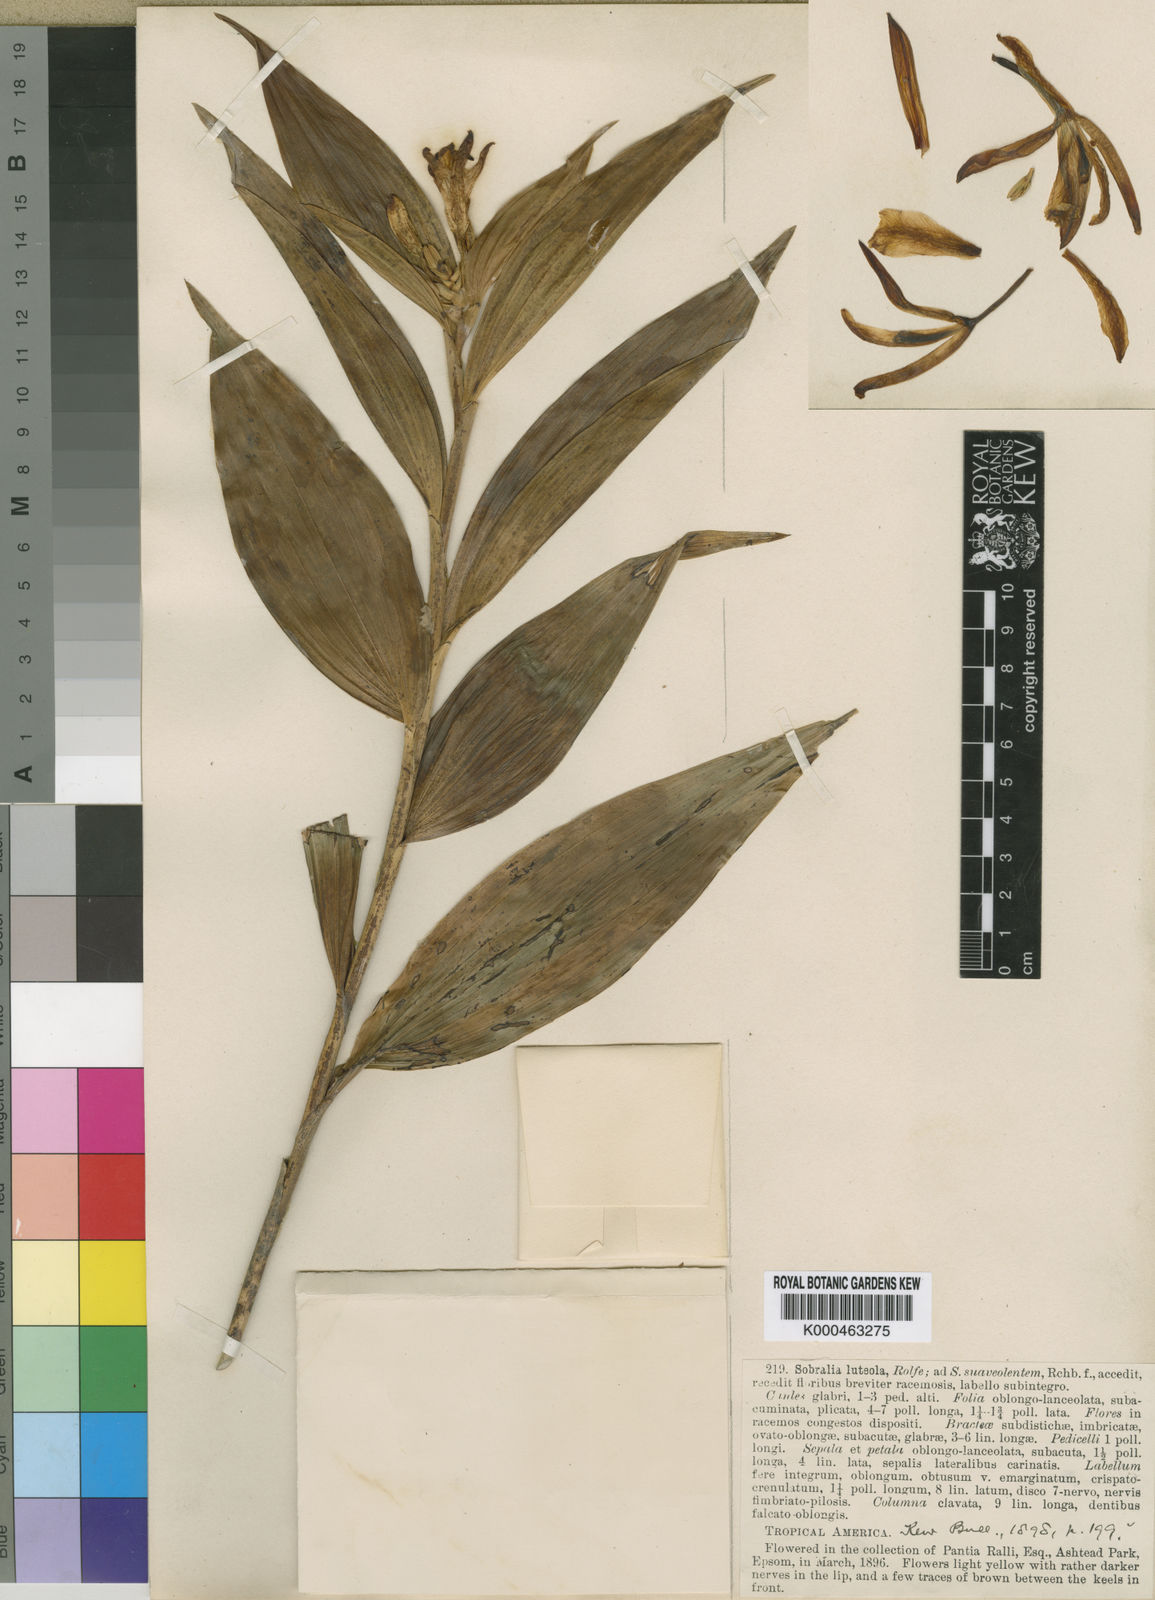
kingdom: Plantae
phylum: Tracheophyta
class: Liliopsida
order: Asparagales
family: Orchidaceae
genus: Sobralia
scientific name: Sobralia luteola
